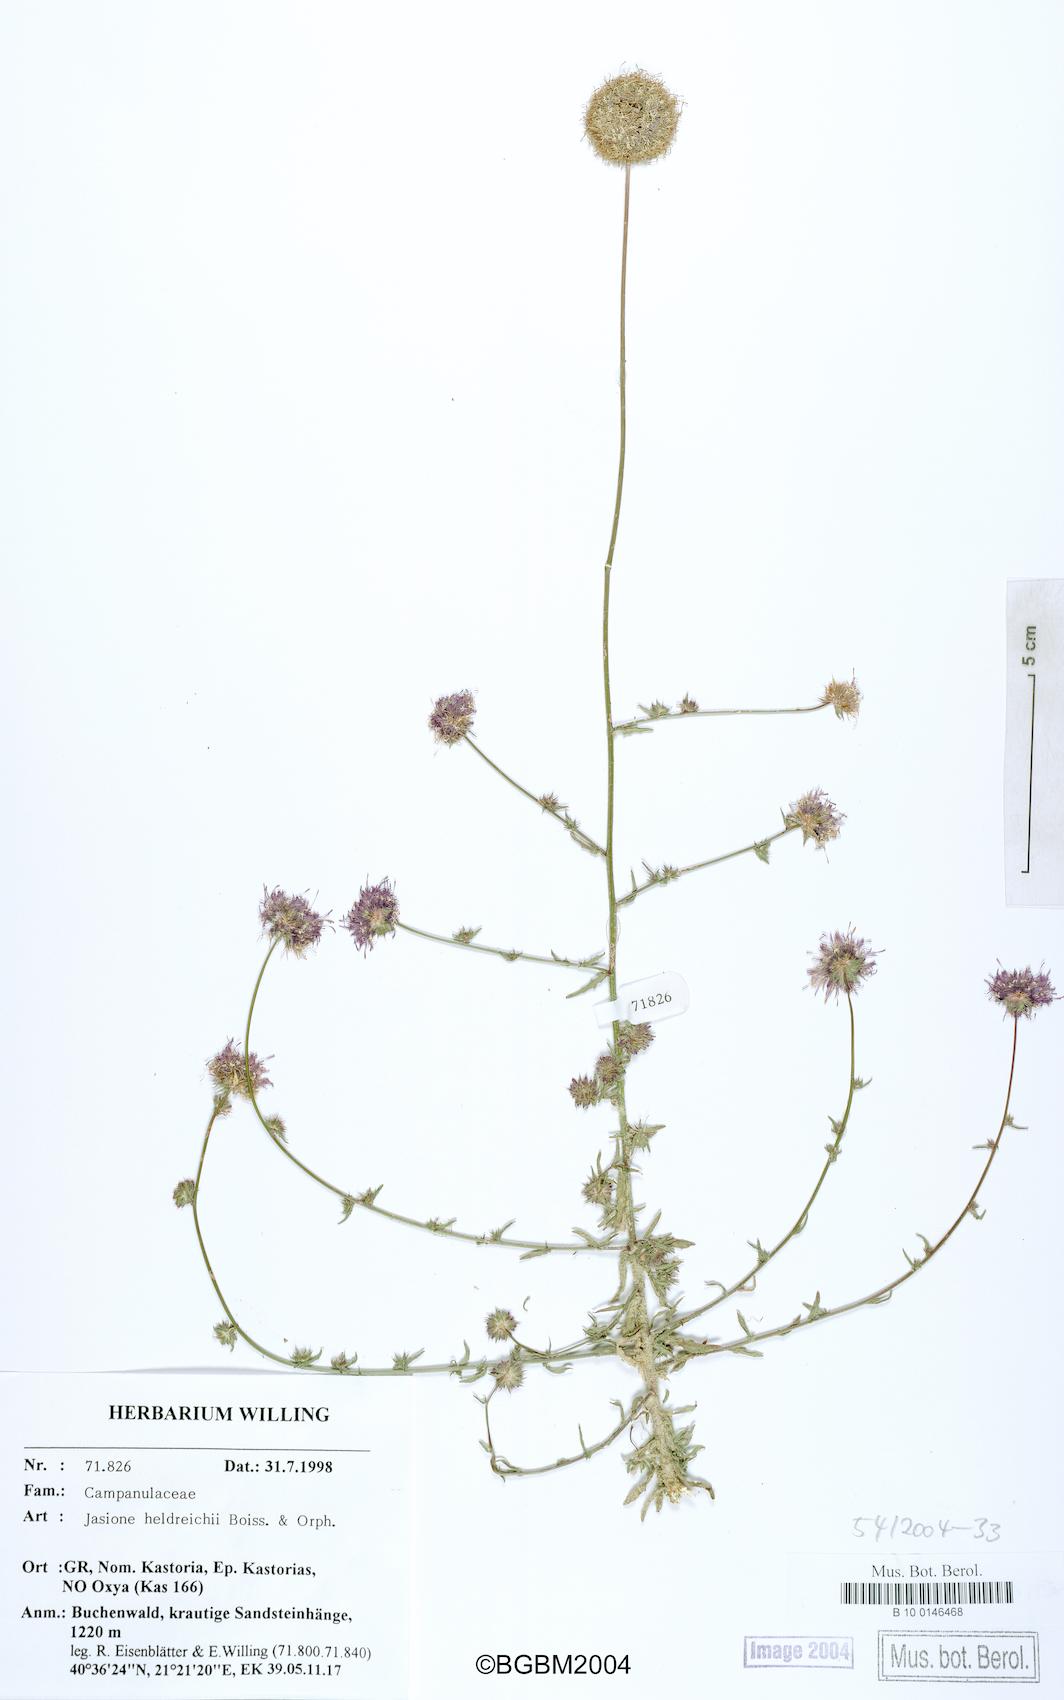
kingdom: Plantae
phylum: Tracheophyta
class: Magnoliopsida
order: Asterales
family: Campanulaceae
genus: Jasione
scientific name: Jasione heldreichii
